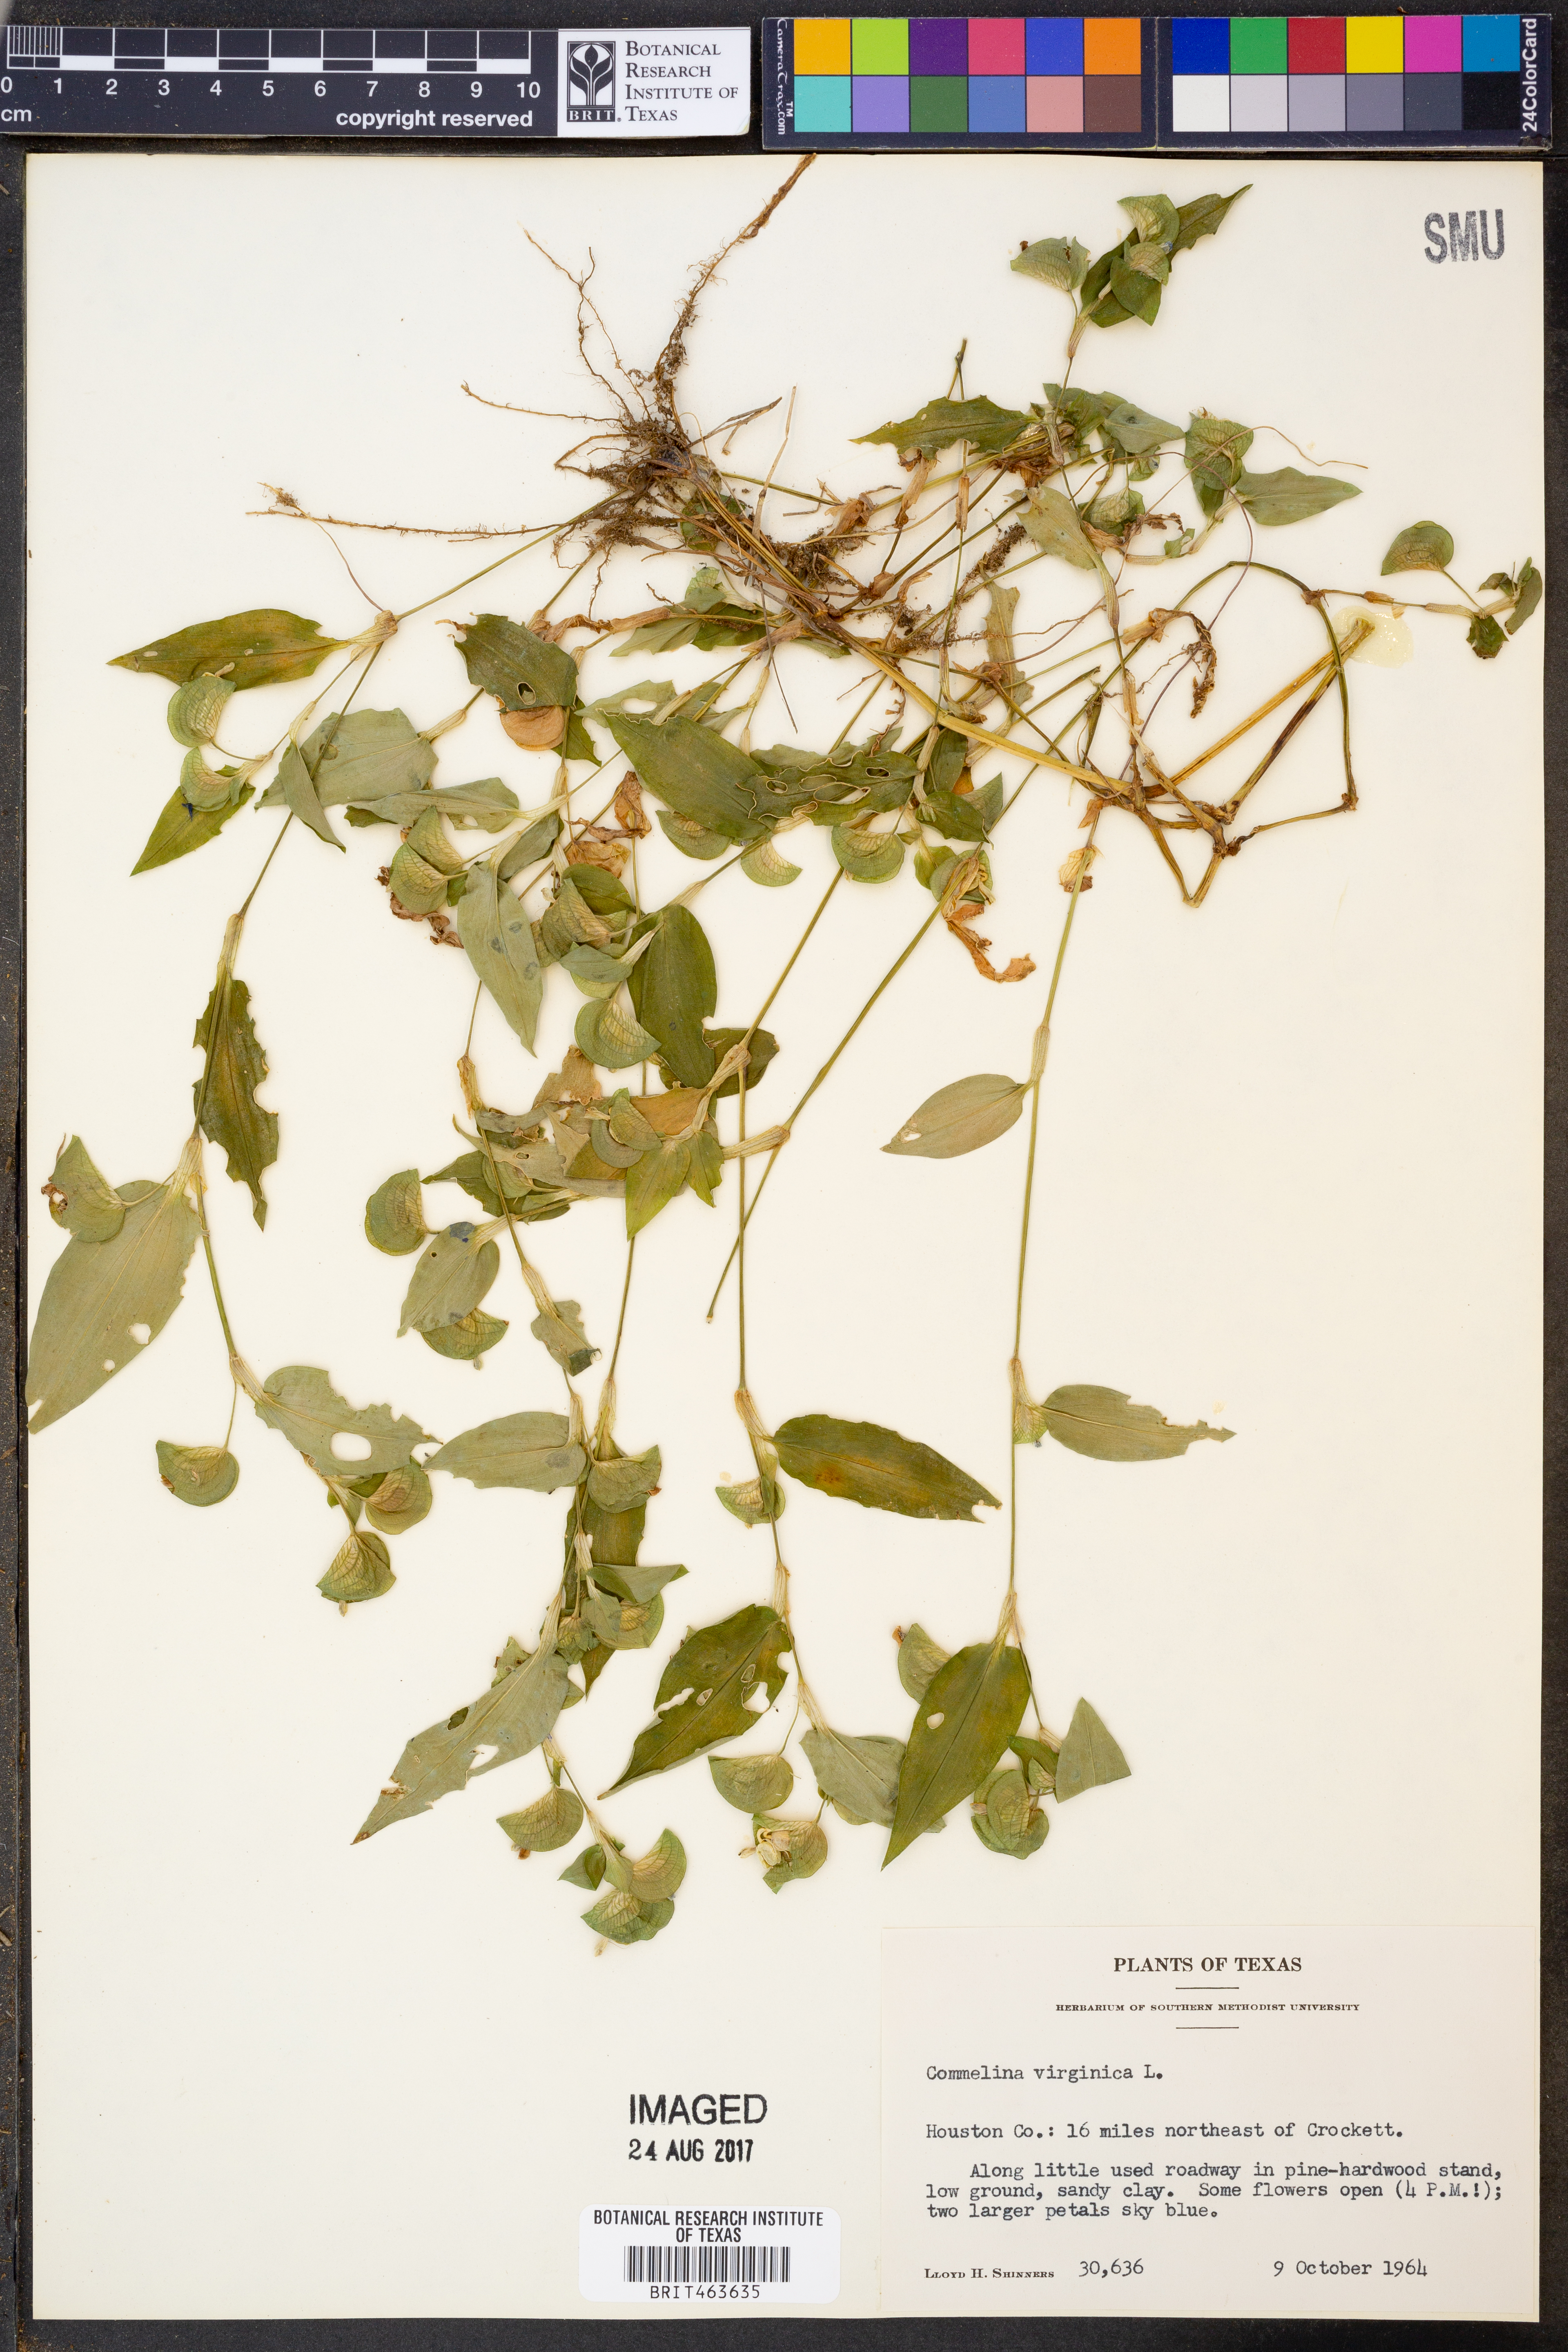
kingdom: Plantae
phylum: Tracheophyta
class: Liliopsida
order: Commelinales
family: Commelinaceae
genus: Commelina
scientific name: Commelina virginica
